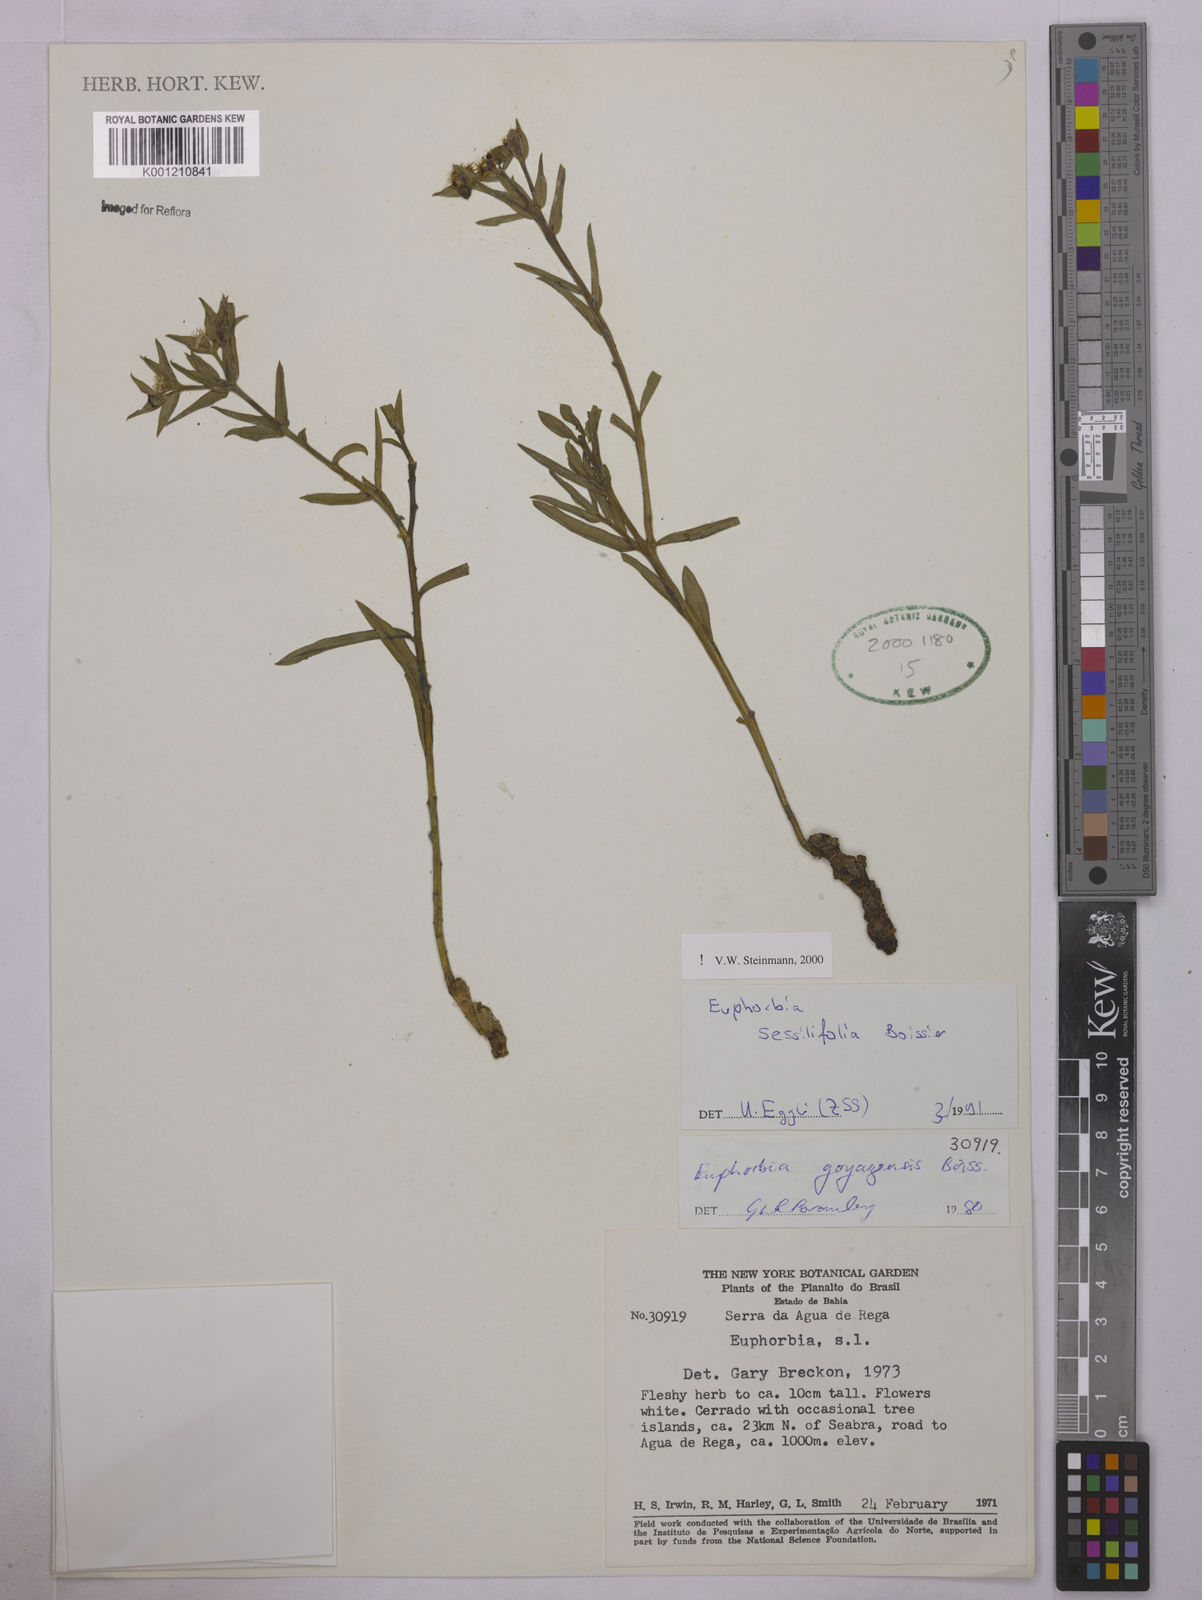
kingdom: Plantae
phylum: Tracheophyta
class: Magnoliopsida
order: Malpighiales
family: Euphorbiaceae
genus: Euphorbia
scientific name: Euphorbia sessilifolia
